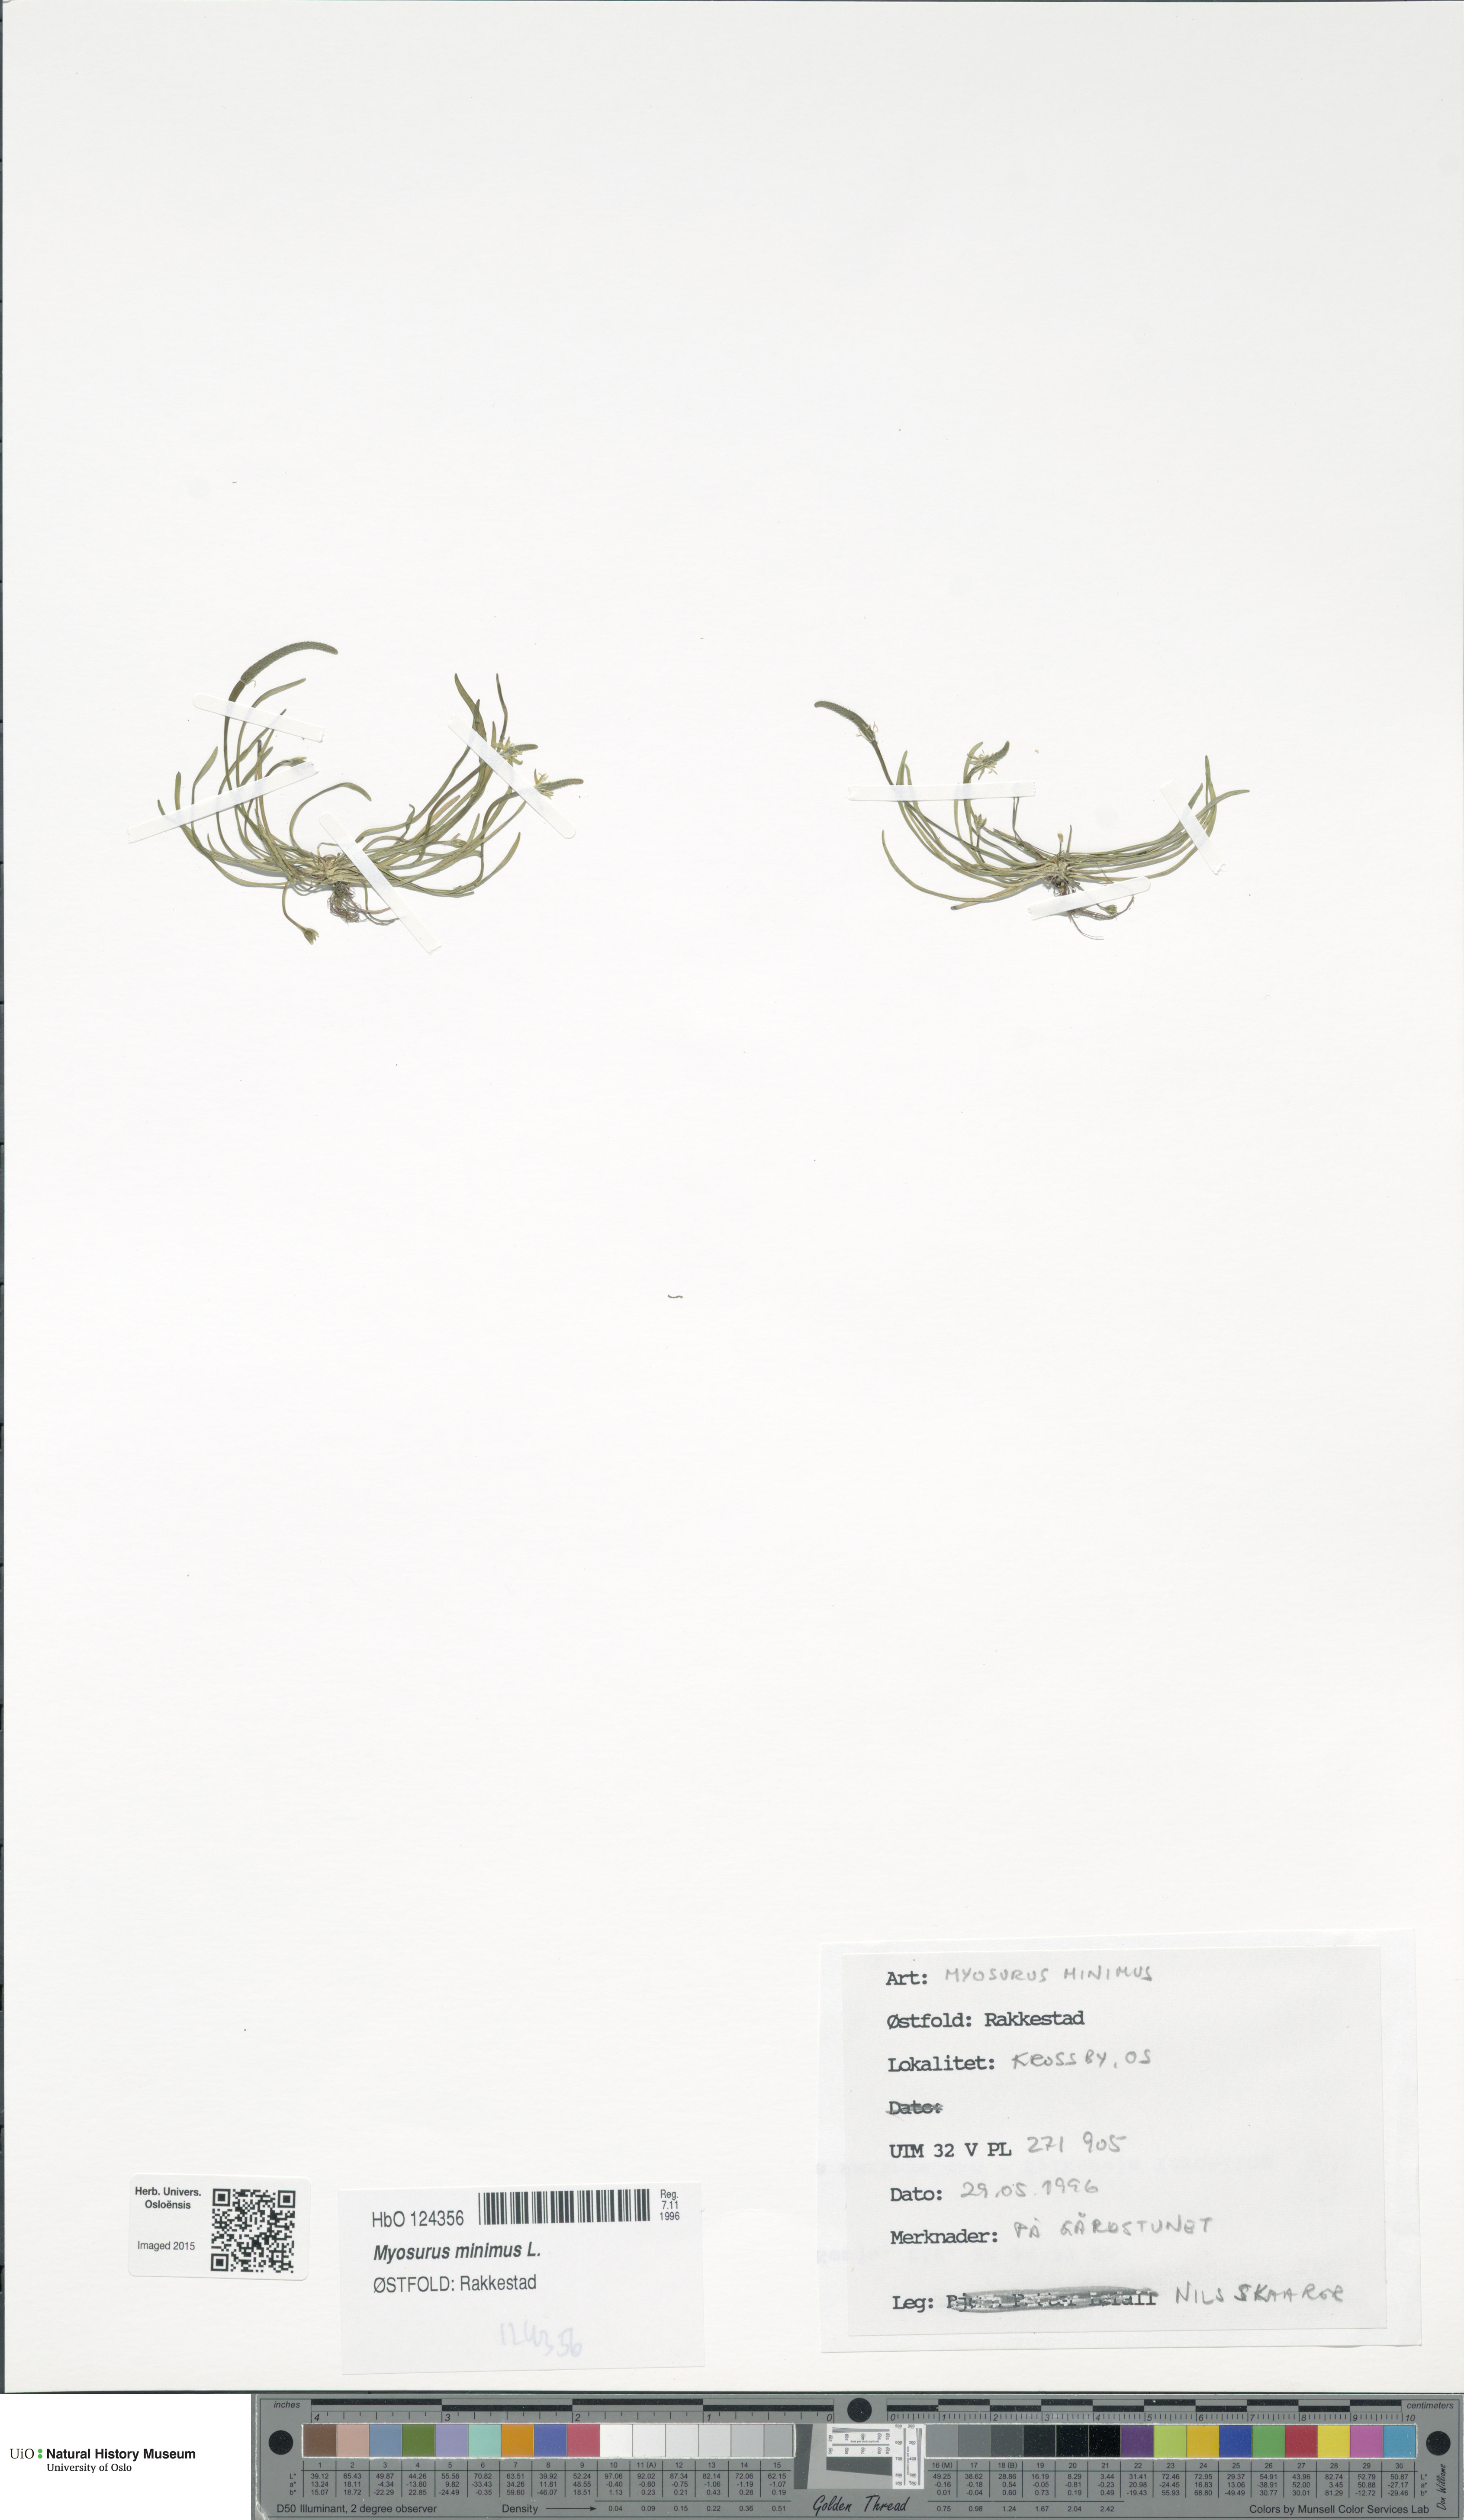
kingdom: Plantae
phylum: Tracheophyta
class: Magnoliopsida
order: Ranunculales
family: Ranunculaceae
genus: Myosurus
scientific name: Myosurus minimus
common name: Mousetail
